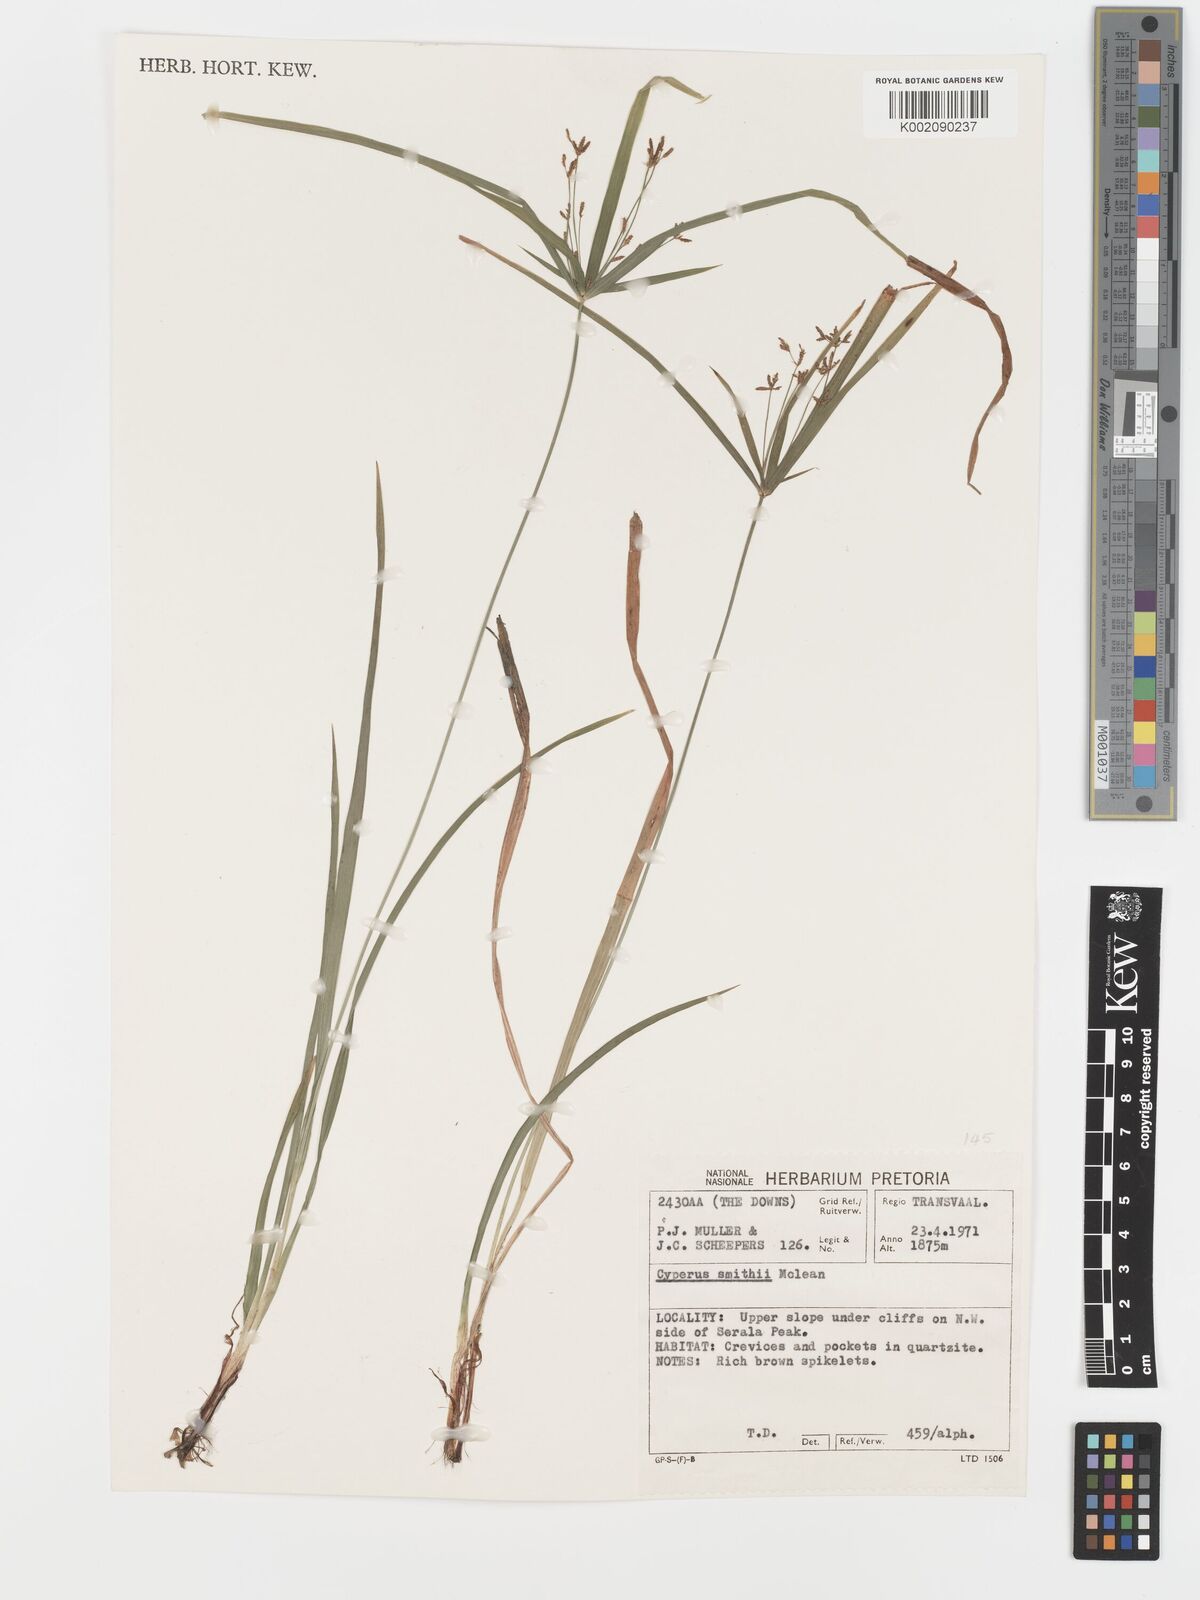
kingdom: Plantae
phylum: Tracheophyta
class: Liliopsida
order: Poales
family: Cyperaceae
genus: Cyperus
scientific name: Cyperus leptocladus
